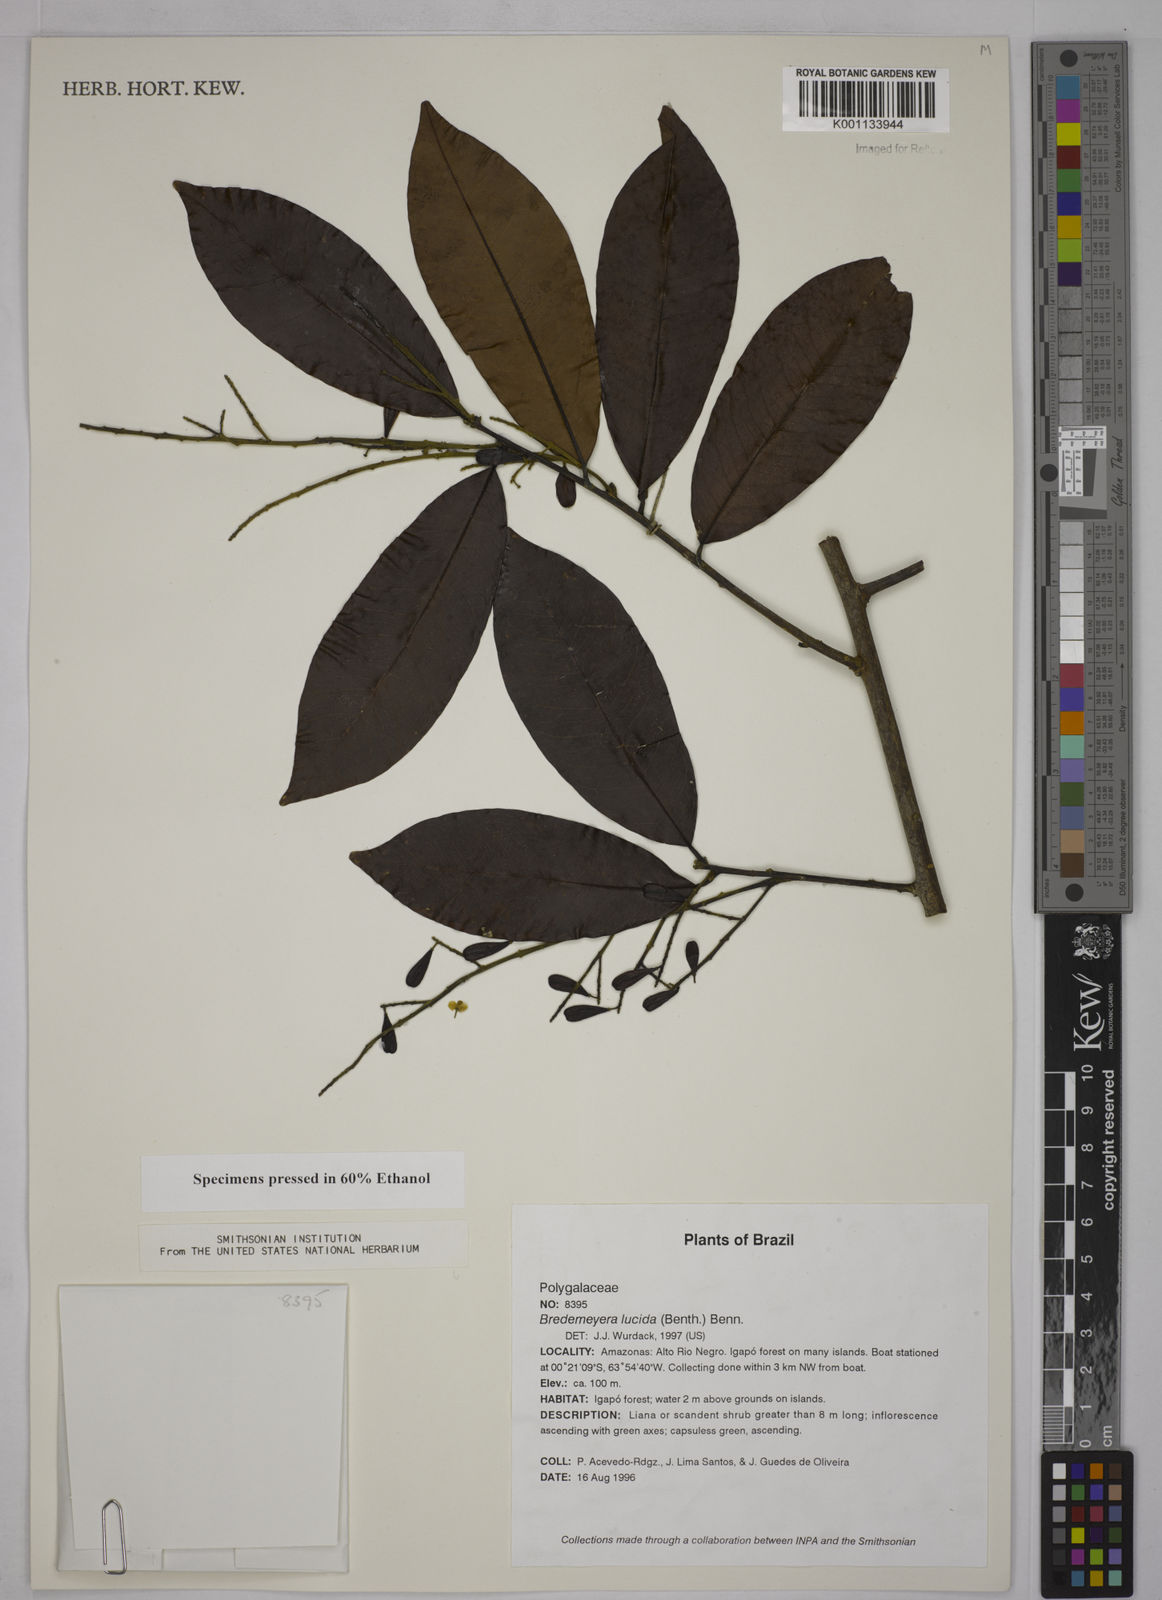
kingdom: Plantae
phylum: Tracheophyta
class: Magnoliopsida
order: Fabales
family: Polygalaceae
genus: Bredemeyera
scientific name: Bredemeyera
